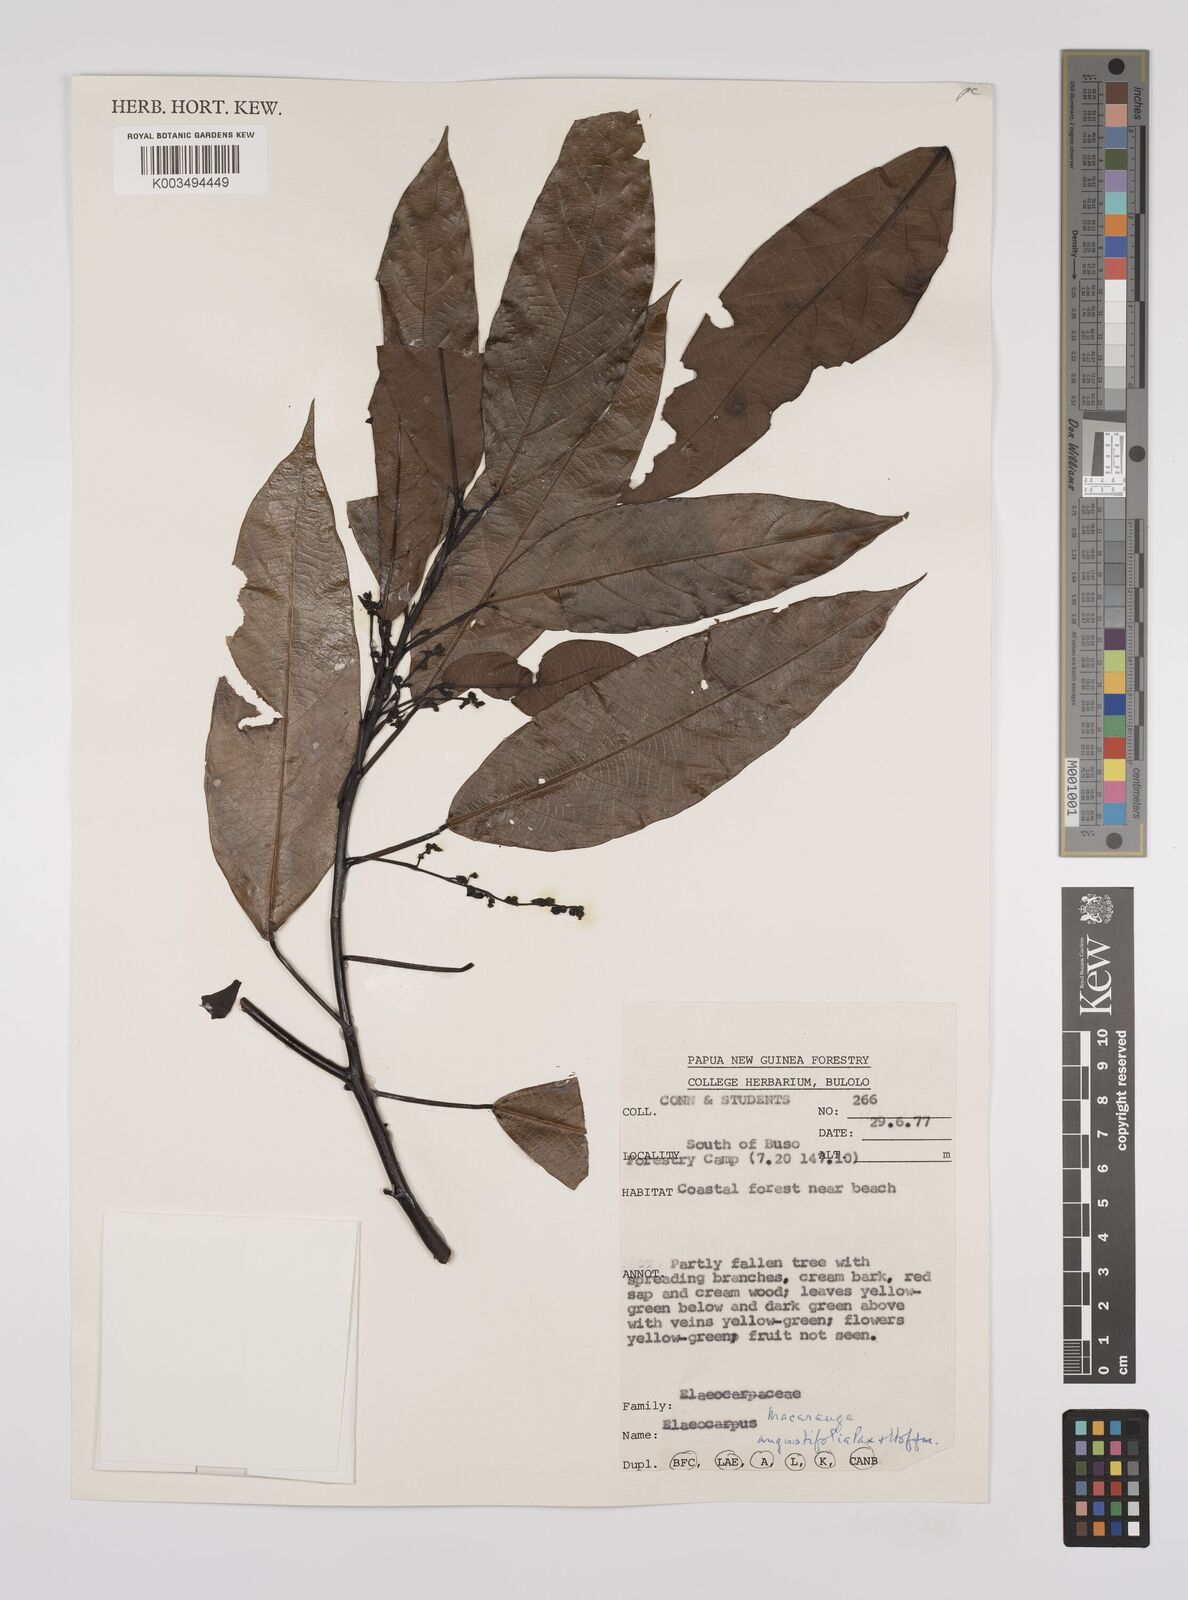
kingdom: Plantae
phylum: Tracheophyta
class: Magnoliopsida
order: Malpighiales
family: Euphorbiaceae
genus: Macaranga
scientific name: Macaranga angustifolia
